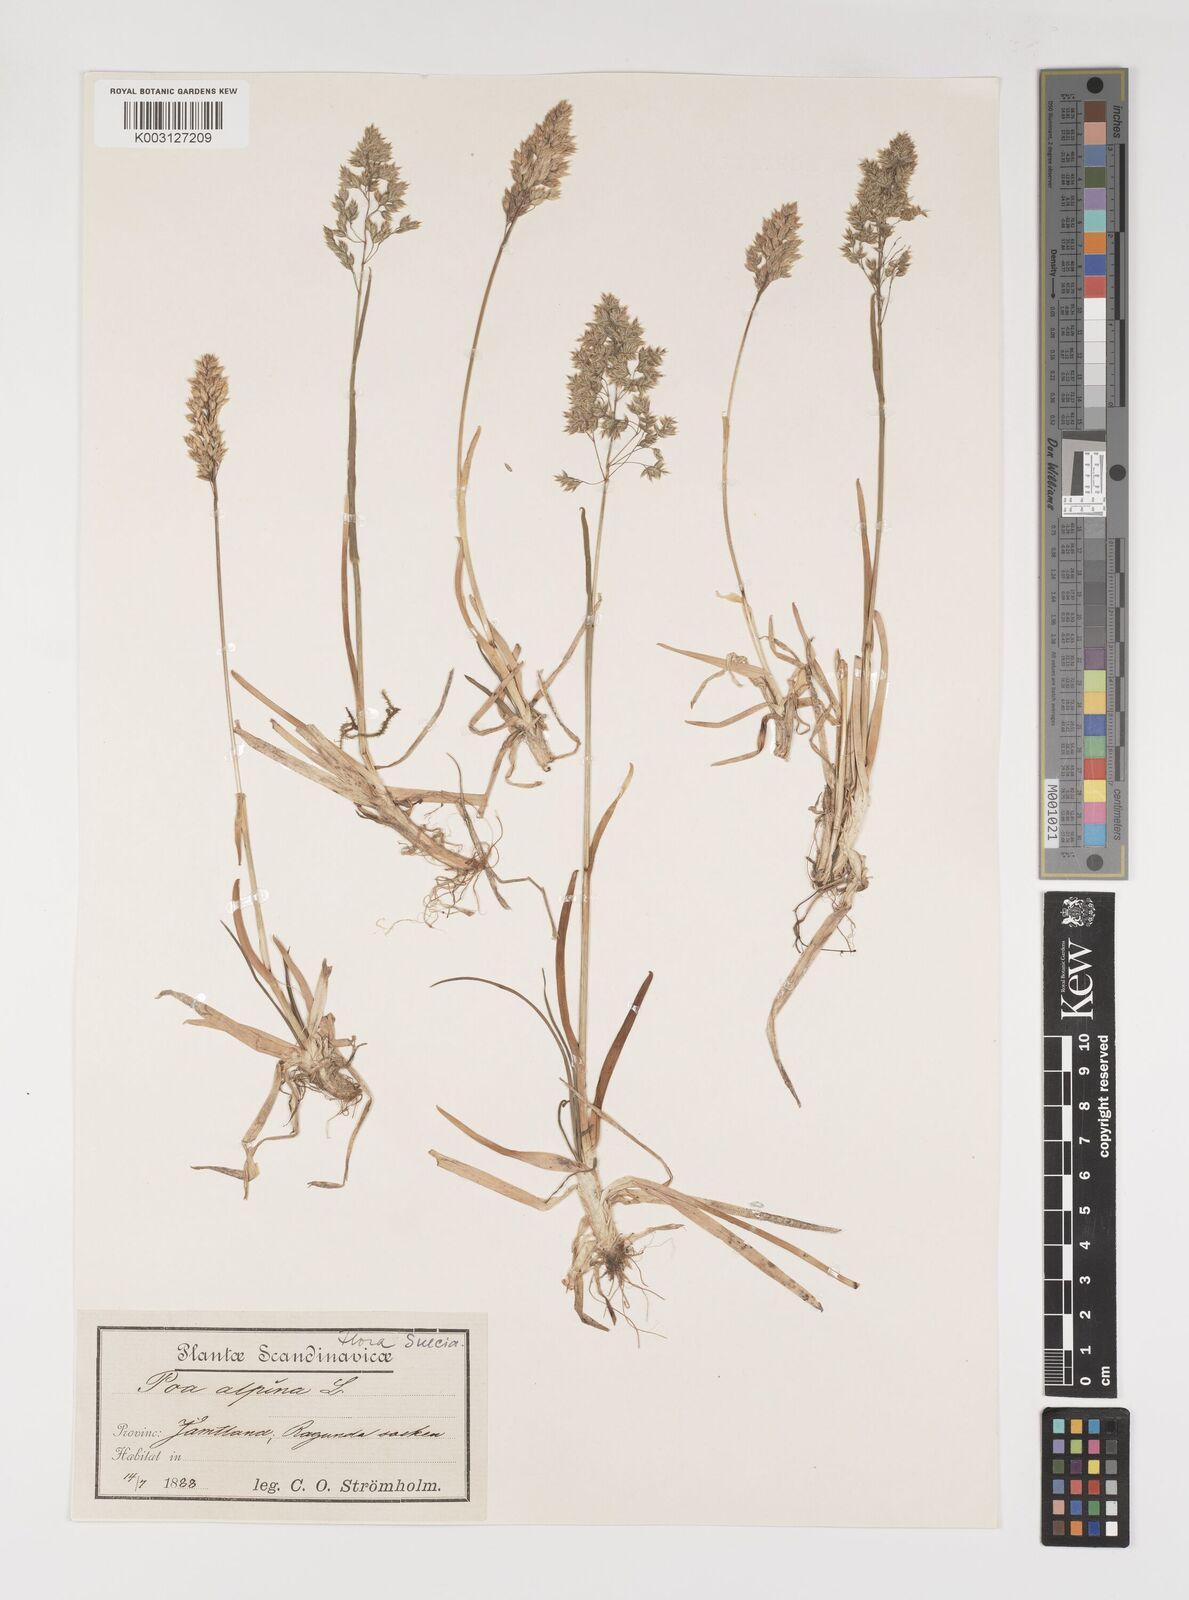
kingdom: Plantae
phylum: Tracheophyta
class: Liliopsida
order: Poales
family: Poaceae
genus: Poa
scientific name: Poa alpina
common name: Alpine bluegrass
